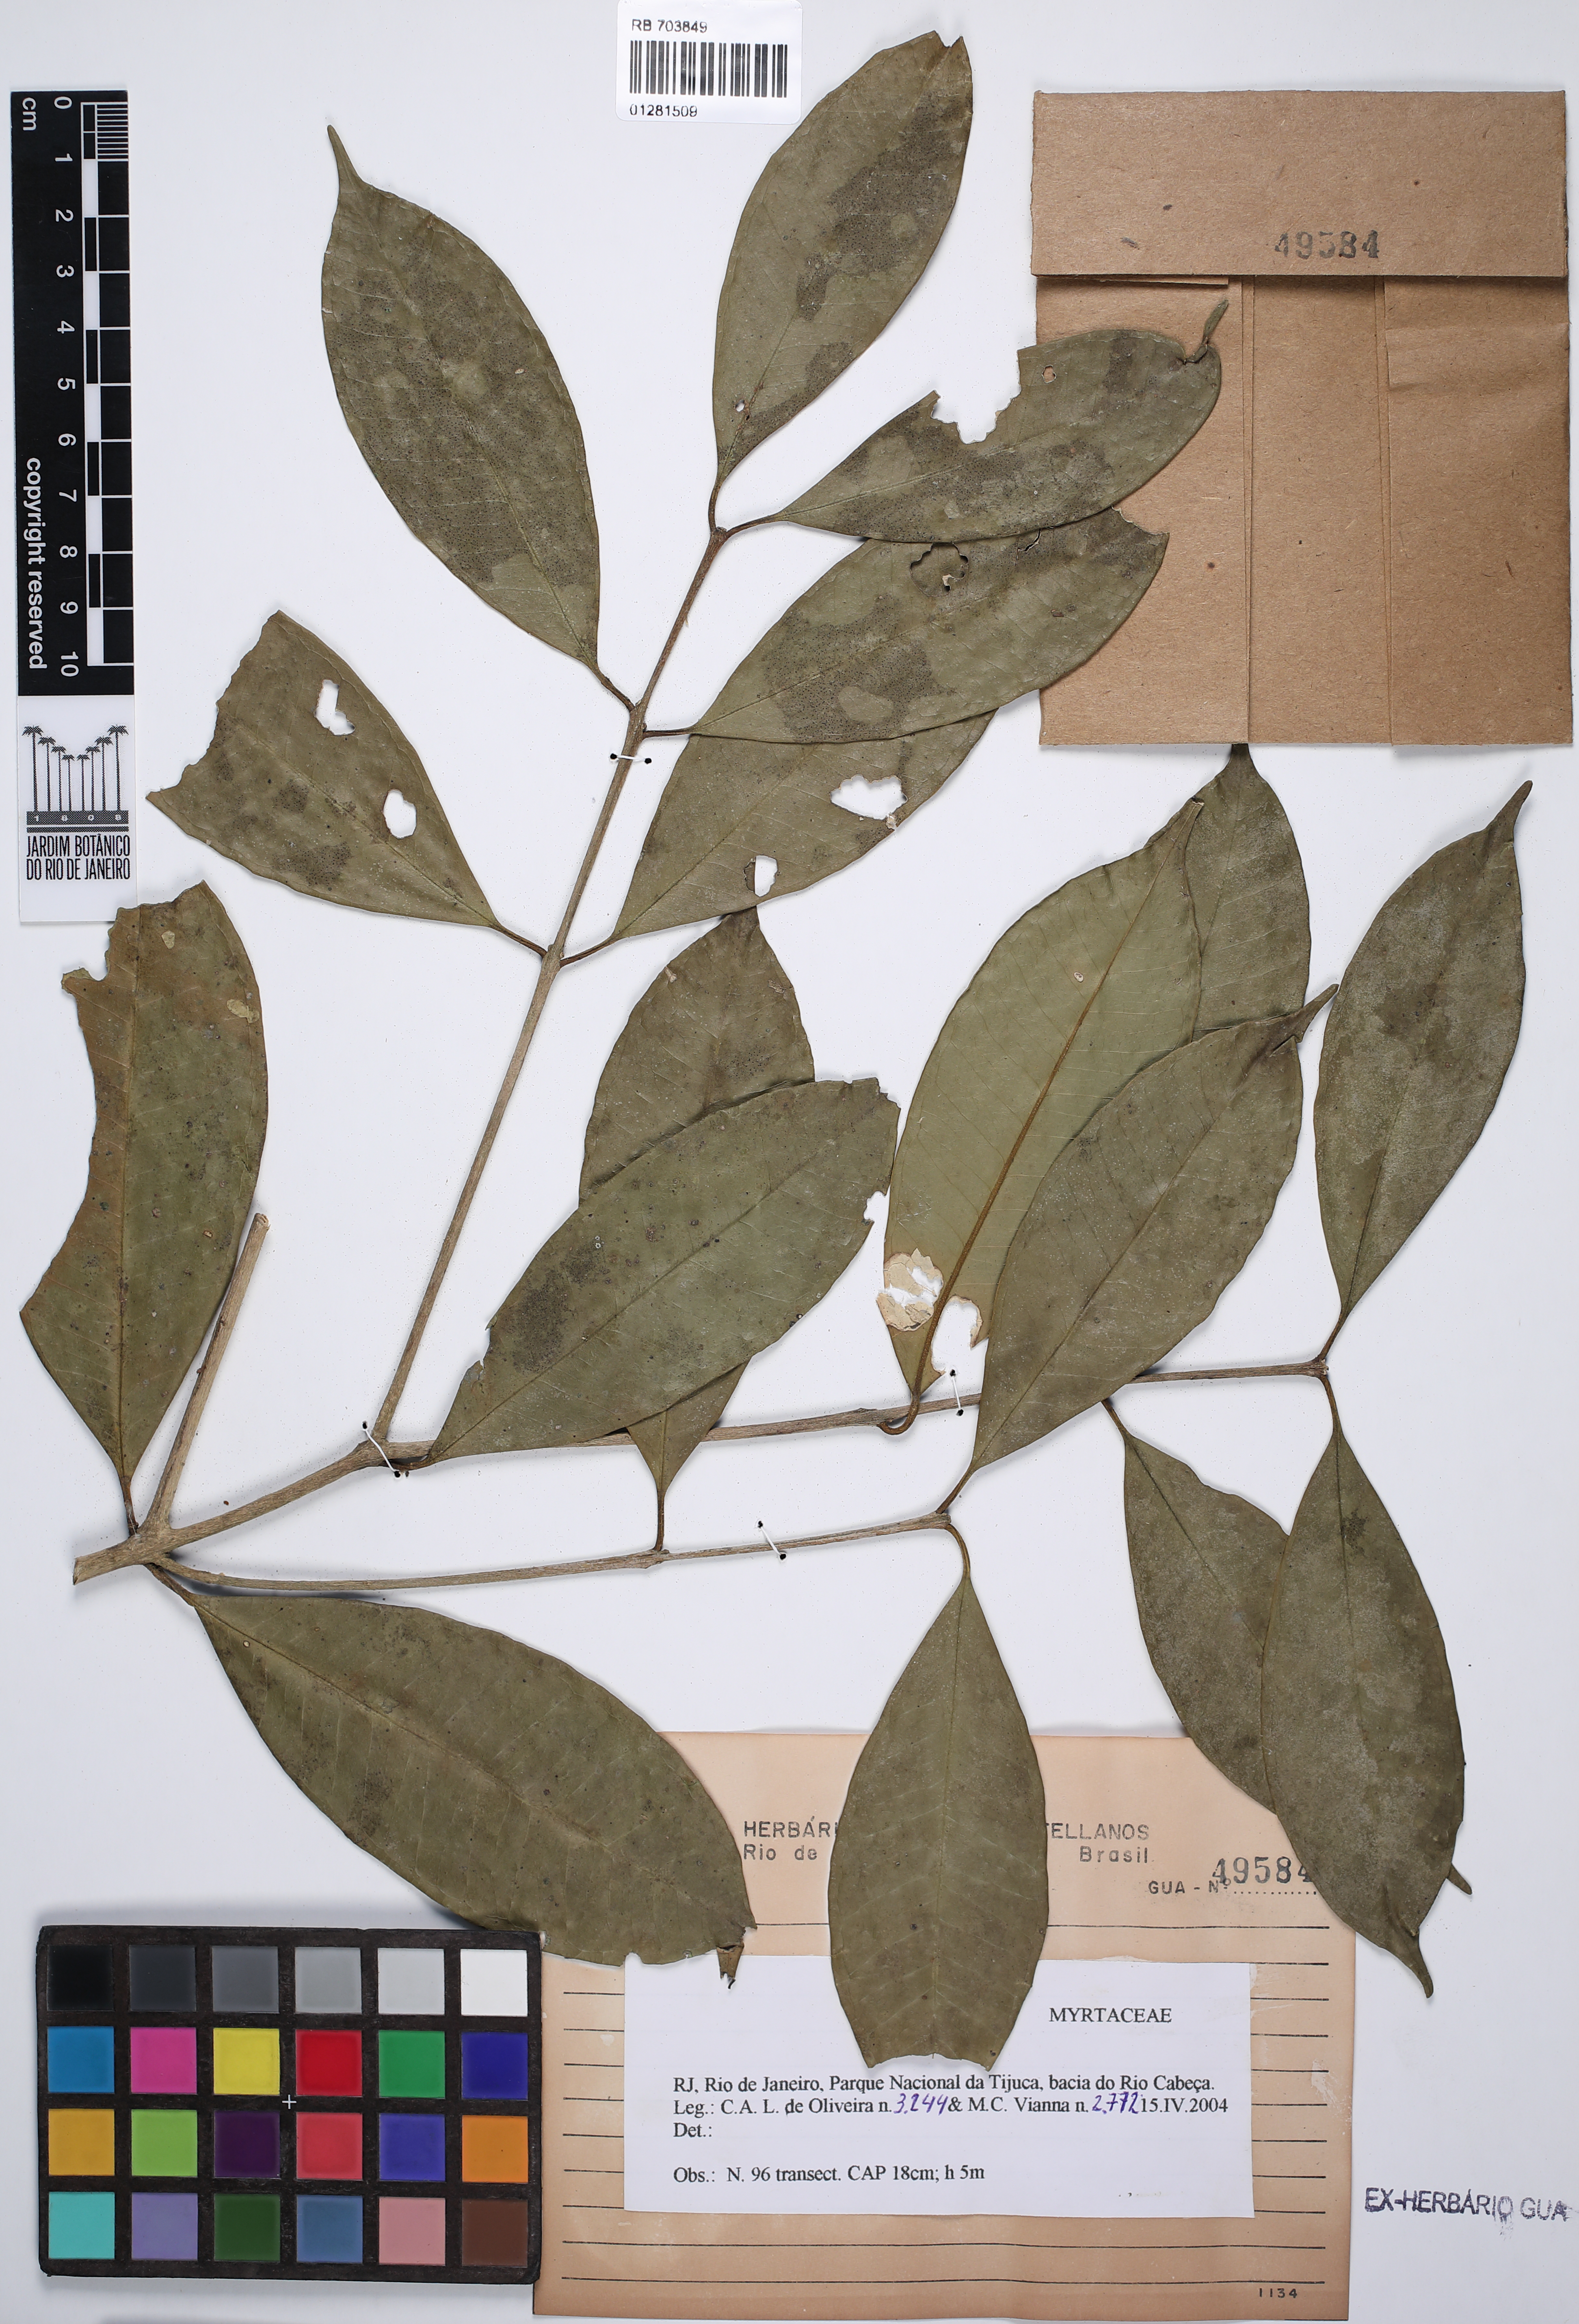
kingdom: Plantae
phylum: Tracheophyta
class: Magnoliopsida
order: Myrtales
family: Myrtaceae
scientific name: Myrtaceae
